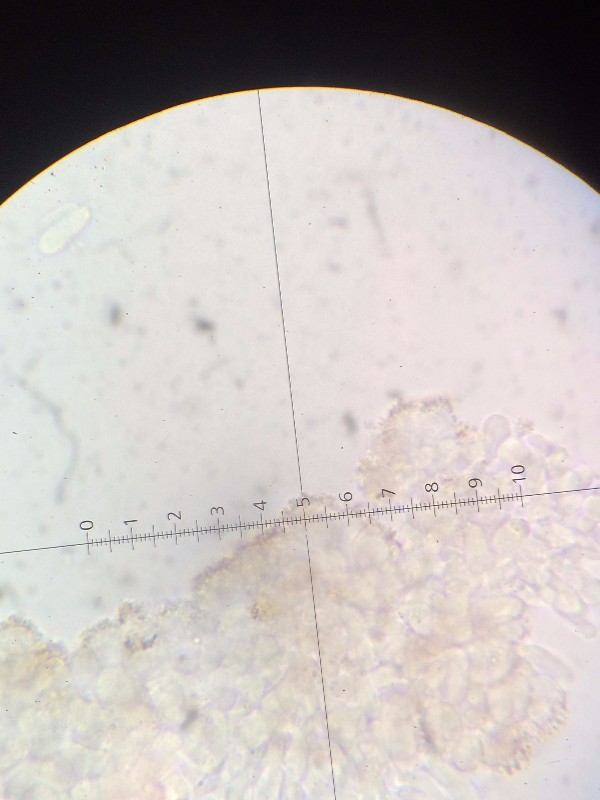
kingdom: Fungi
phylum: Basidiomycota
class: Agaricomycetes
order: Agaricales
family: Marasmiaceae
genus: Marasmius
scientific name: Marasmius limosus
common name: kær-bruskhat
